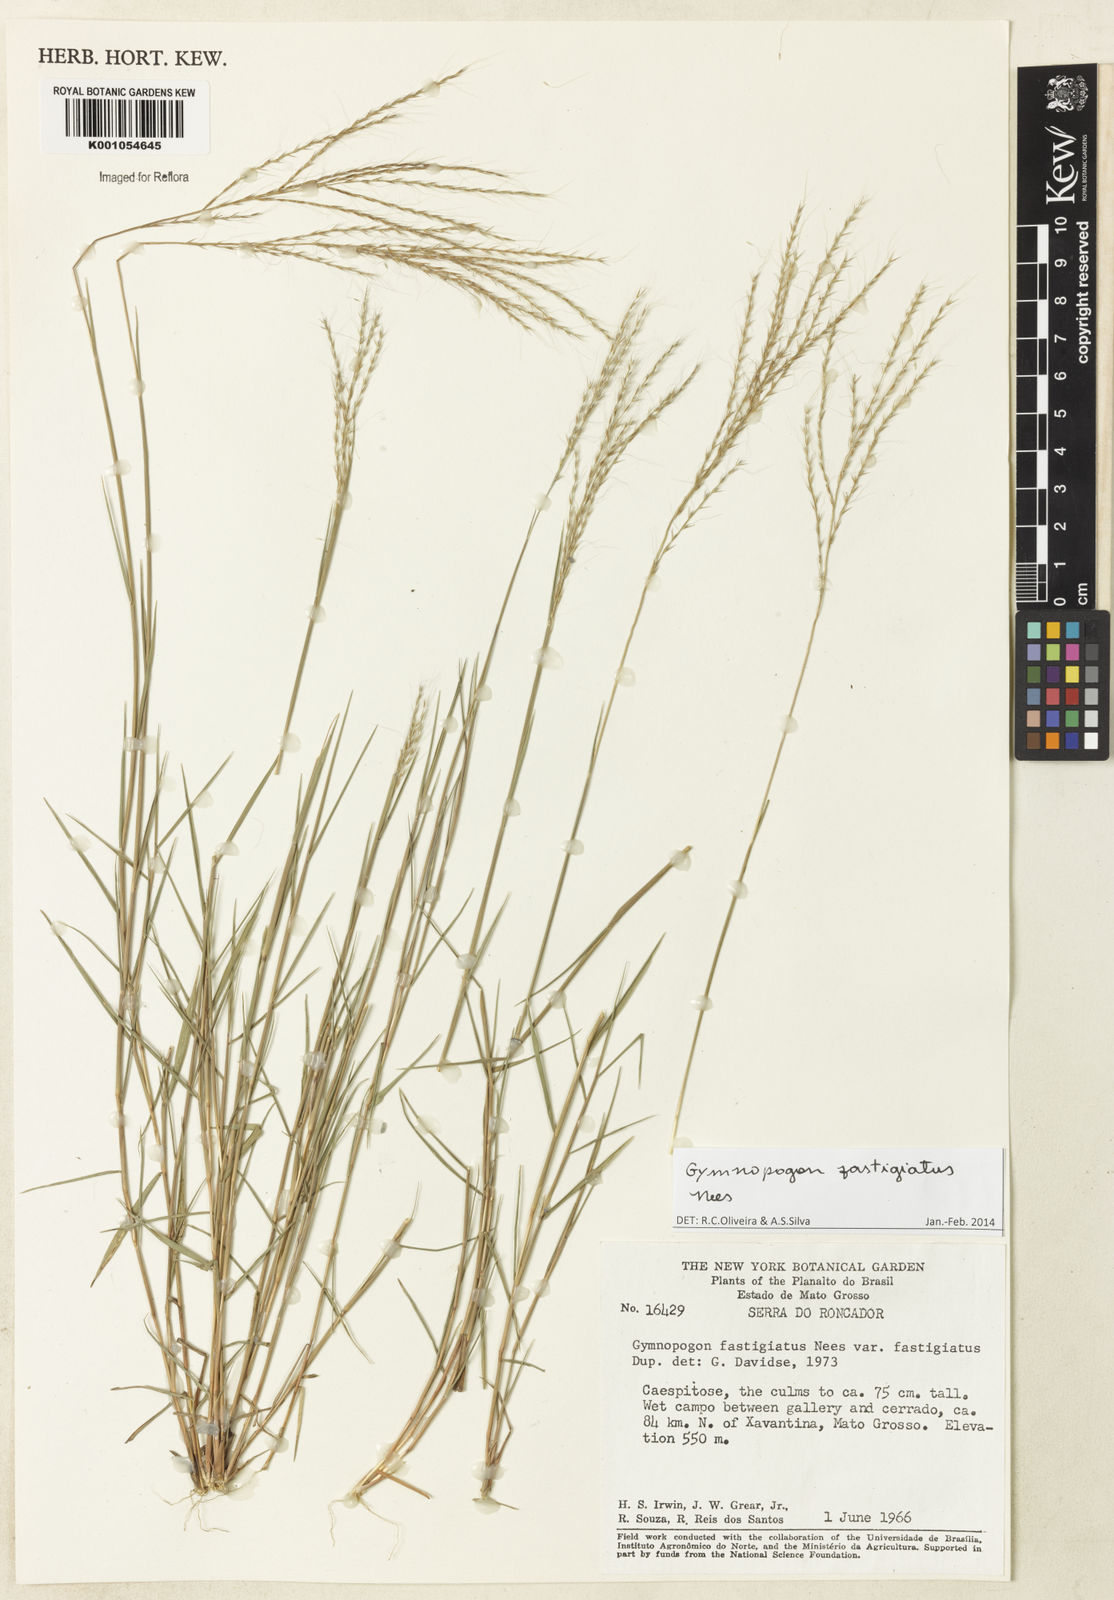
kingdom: Plantae
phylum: Tracheophyta
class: Liliopsida
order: Poales
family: Poaceae
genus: Gymnopogon
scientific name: Gymnopogon fastigiatus
